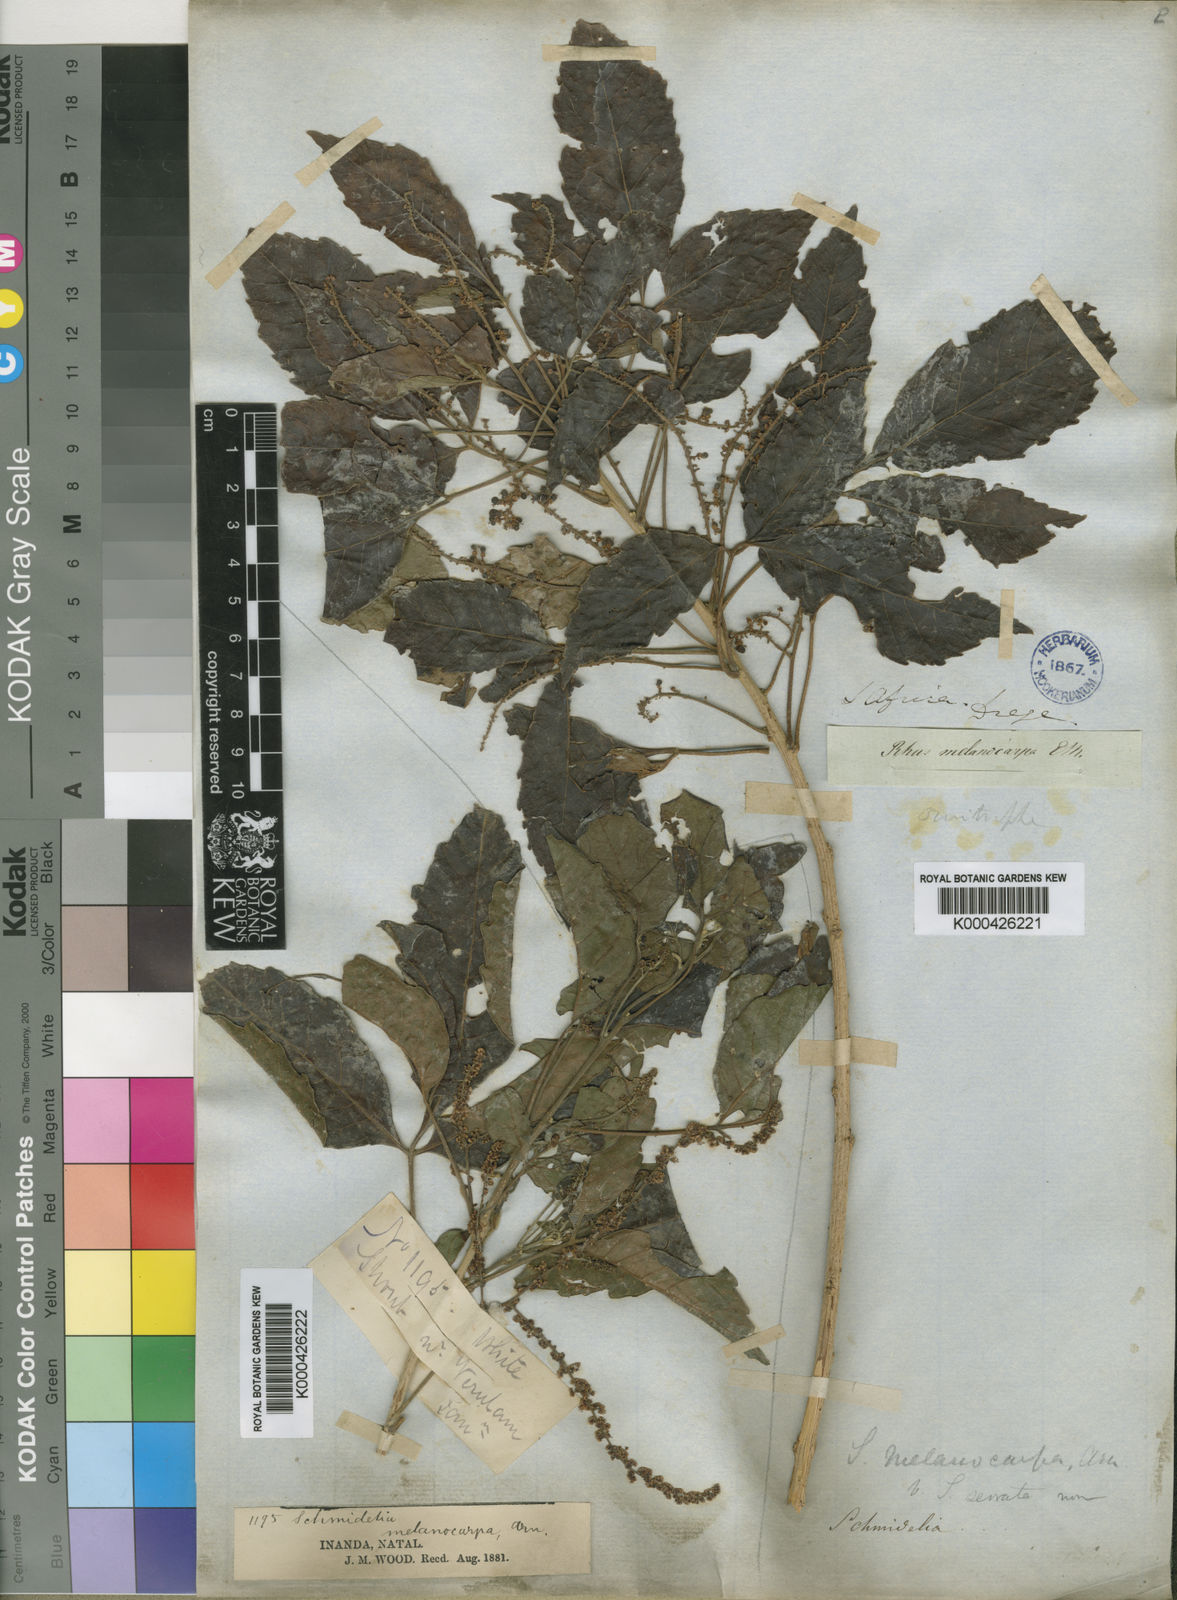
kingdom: Plantae
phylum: Tracheophyta
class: Magnoliopsida
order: Sapindales
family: Sapindaceae
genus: Allophylus
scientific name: Allophylus africanus
